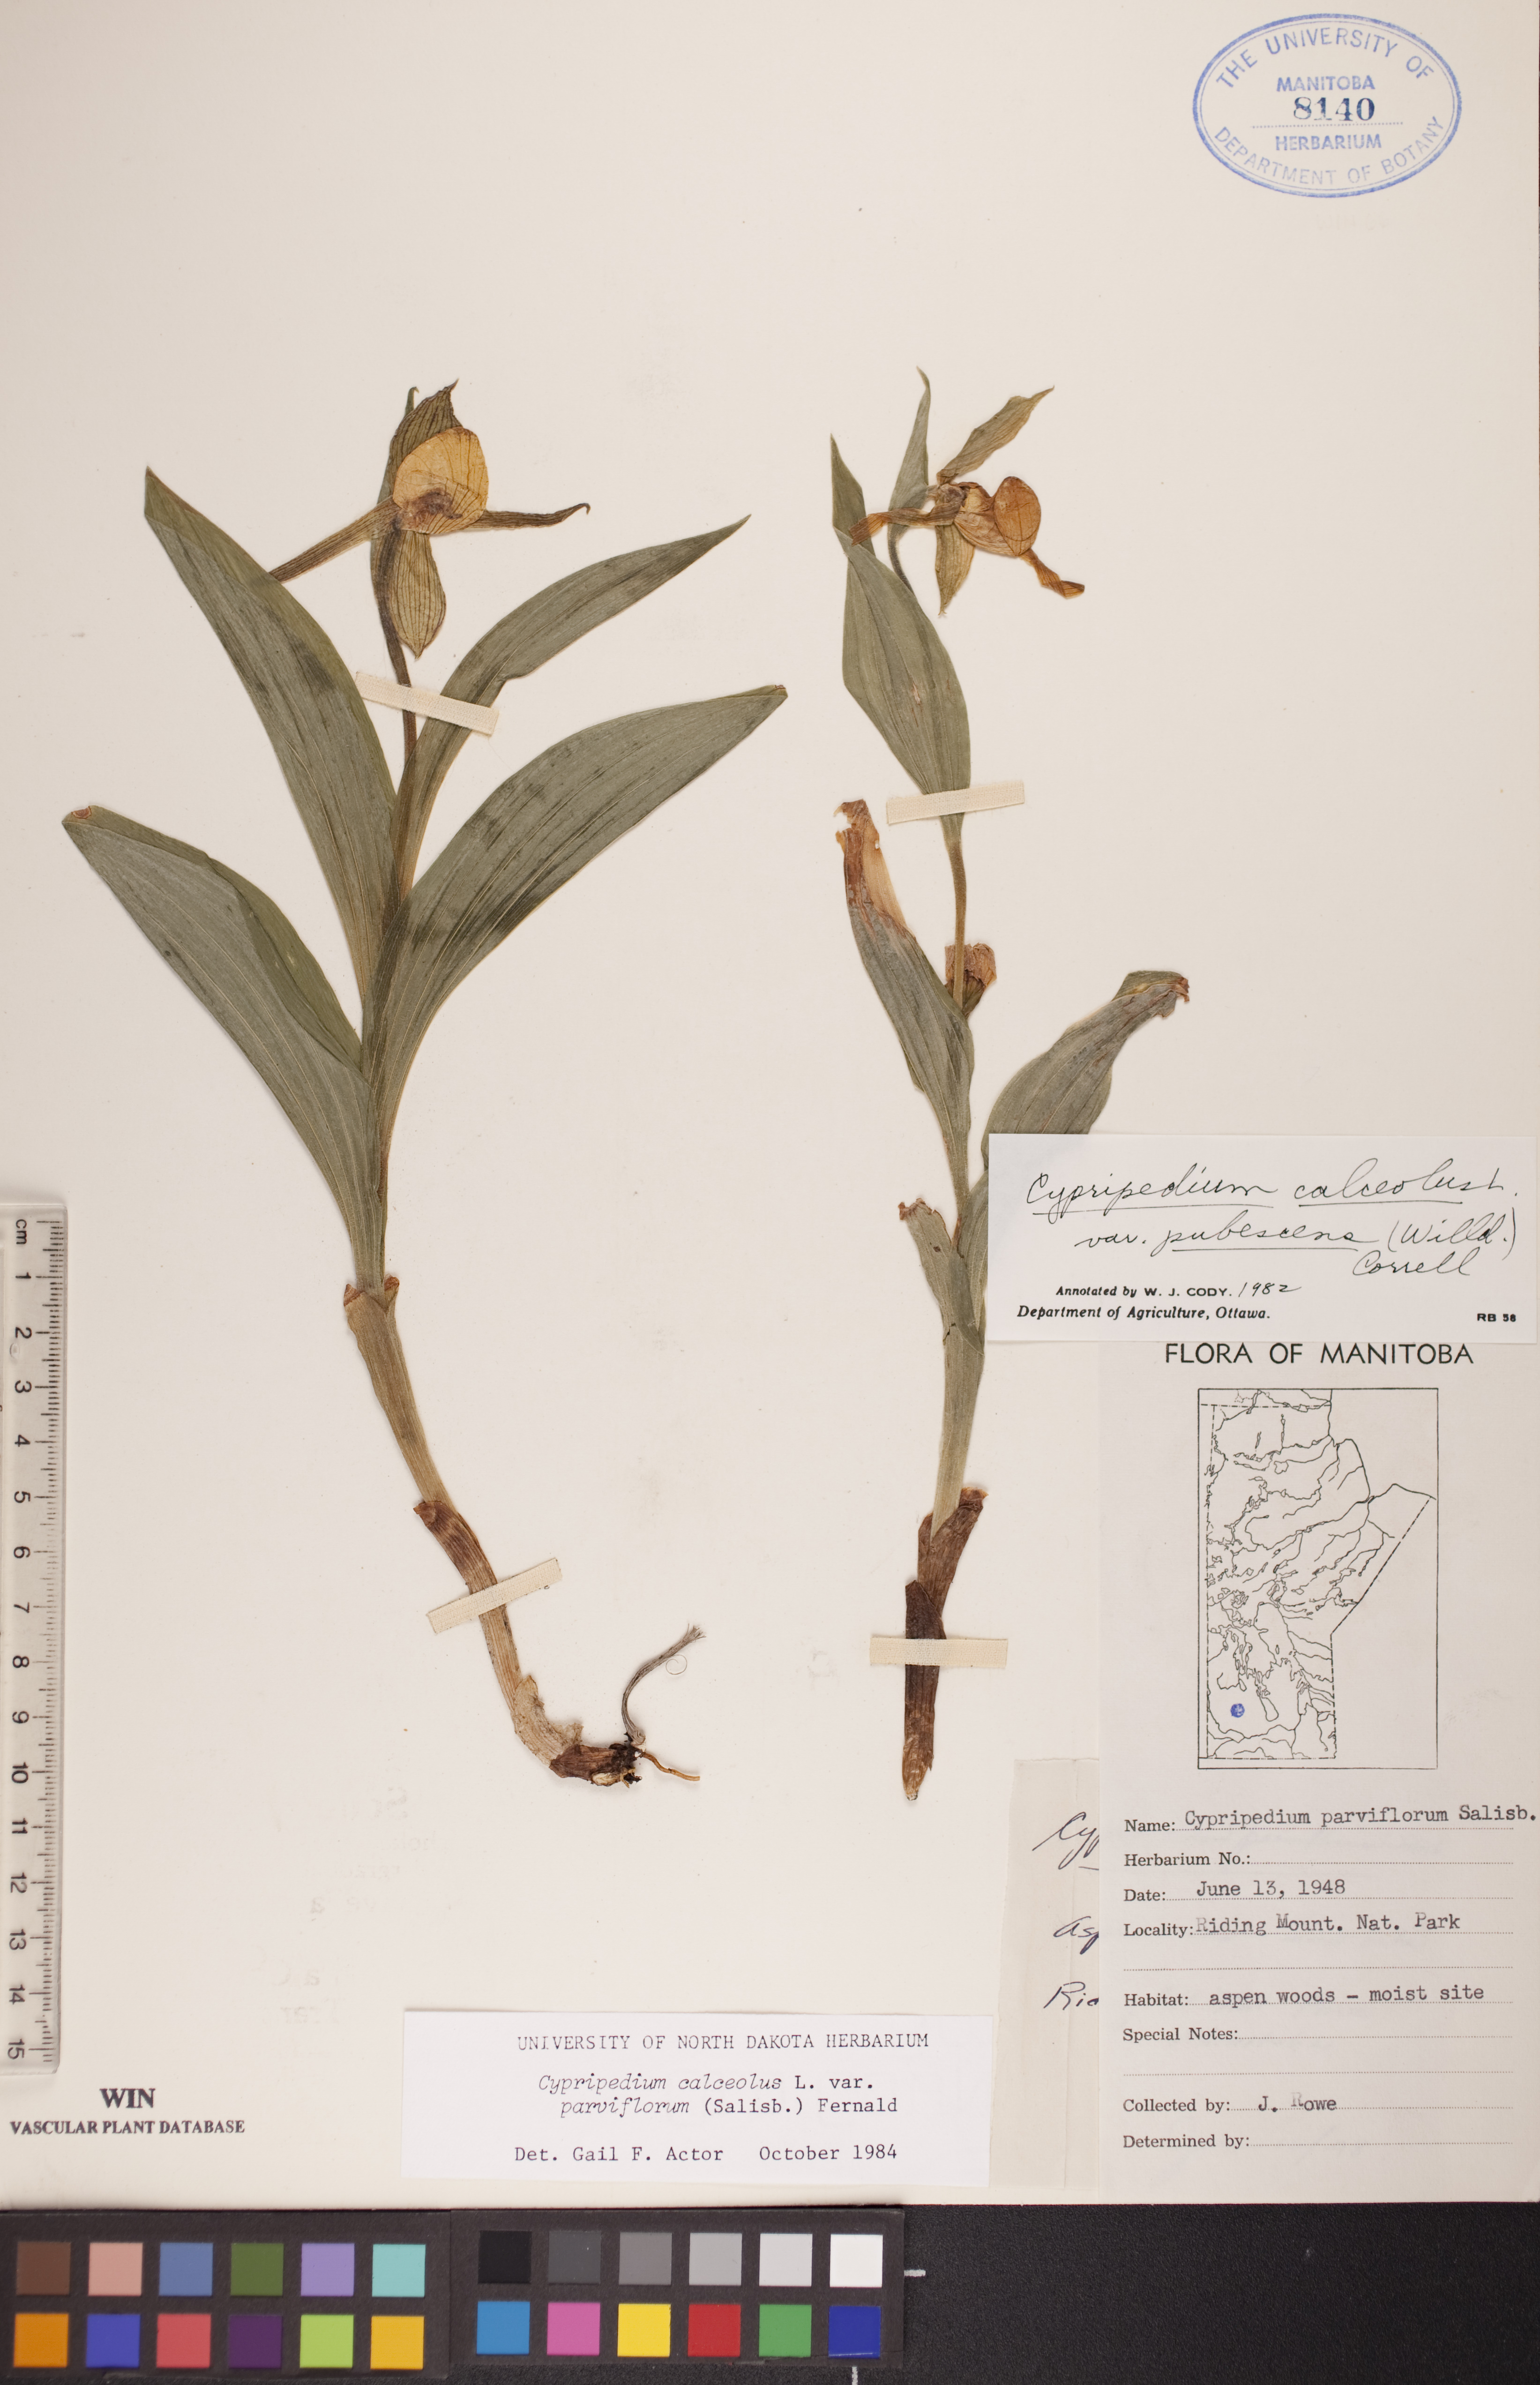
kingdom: Plantae
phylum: Tracheophyta
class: Liliopsida
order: Asparagales
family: Orchidaceae
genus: Cypripedium
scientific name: Cypripedium parviflorum
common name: American yellow lady's-slipper
